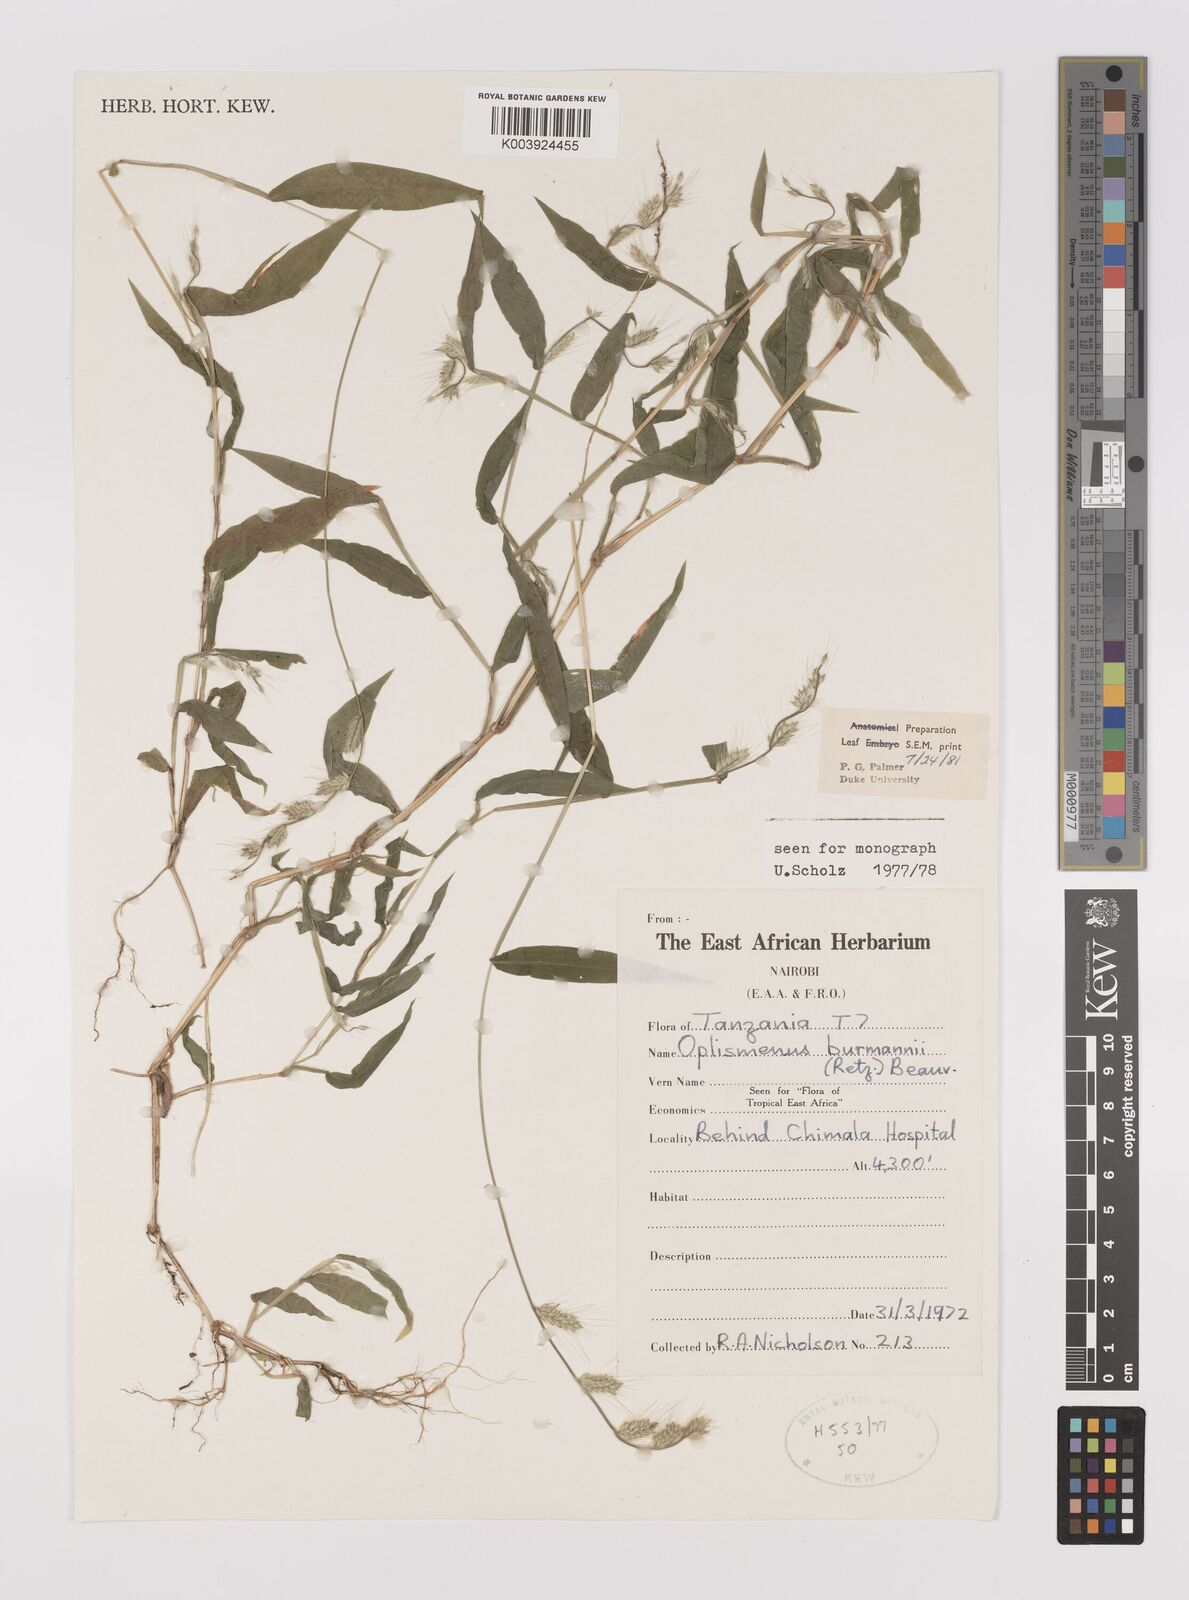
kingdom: Plantae
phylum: Tracheophyta
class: Liliopsida
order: Poales
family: Poaceae
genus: Oplismenus
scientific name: Oplismenus burmanni
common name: Burmann's basketgrass
